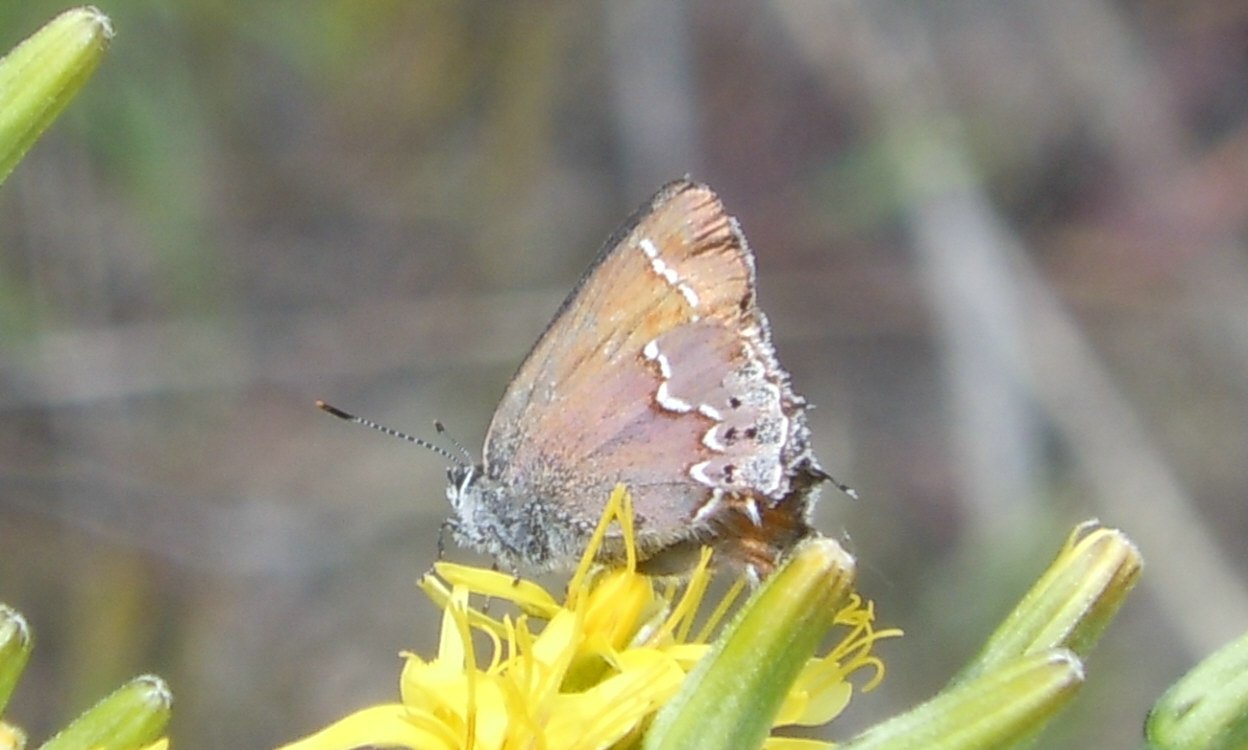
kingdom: Animalia
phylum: Arthropoda
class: Insecta
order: Lepidoptera
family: Lycaenidae
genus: Mitoura
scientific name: Mitoura nelsoni
